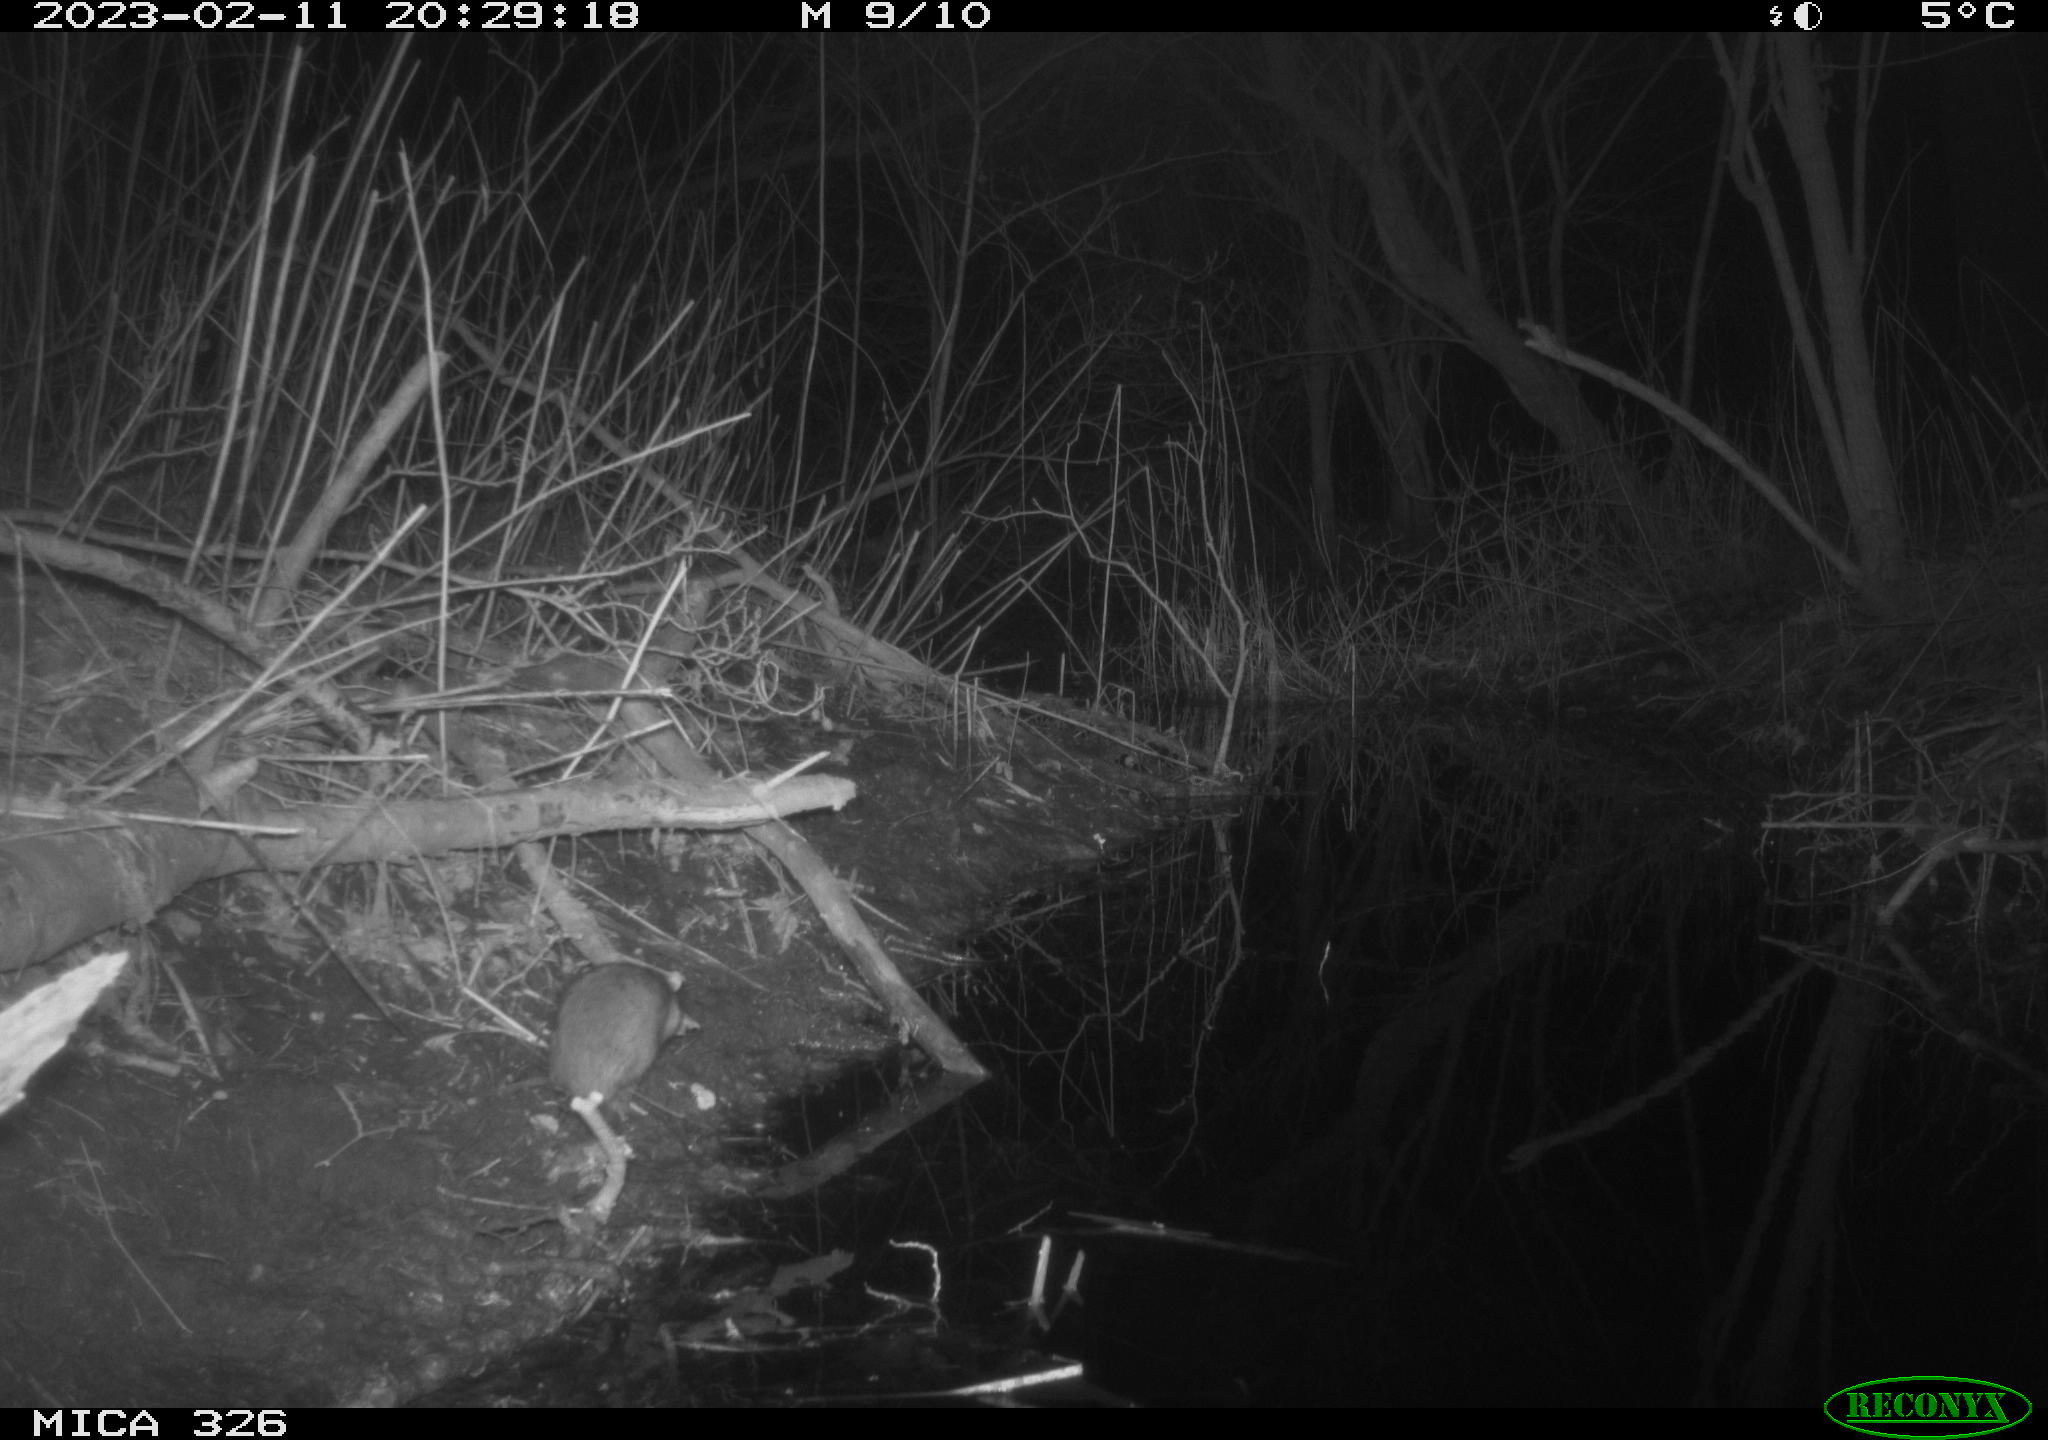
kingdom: Animalia
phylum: Chordata
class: Mammalia
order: Rodentia
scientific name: Rodentia
